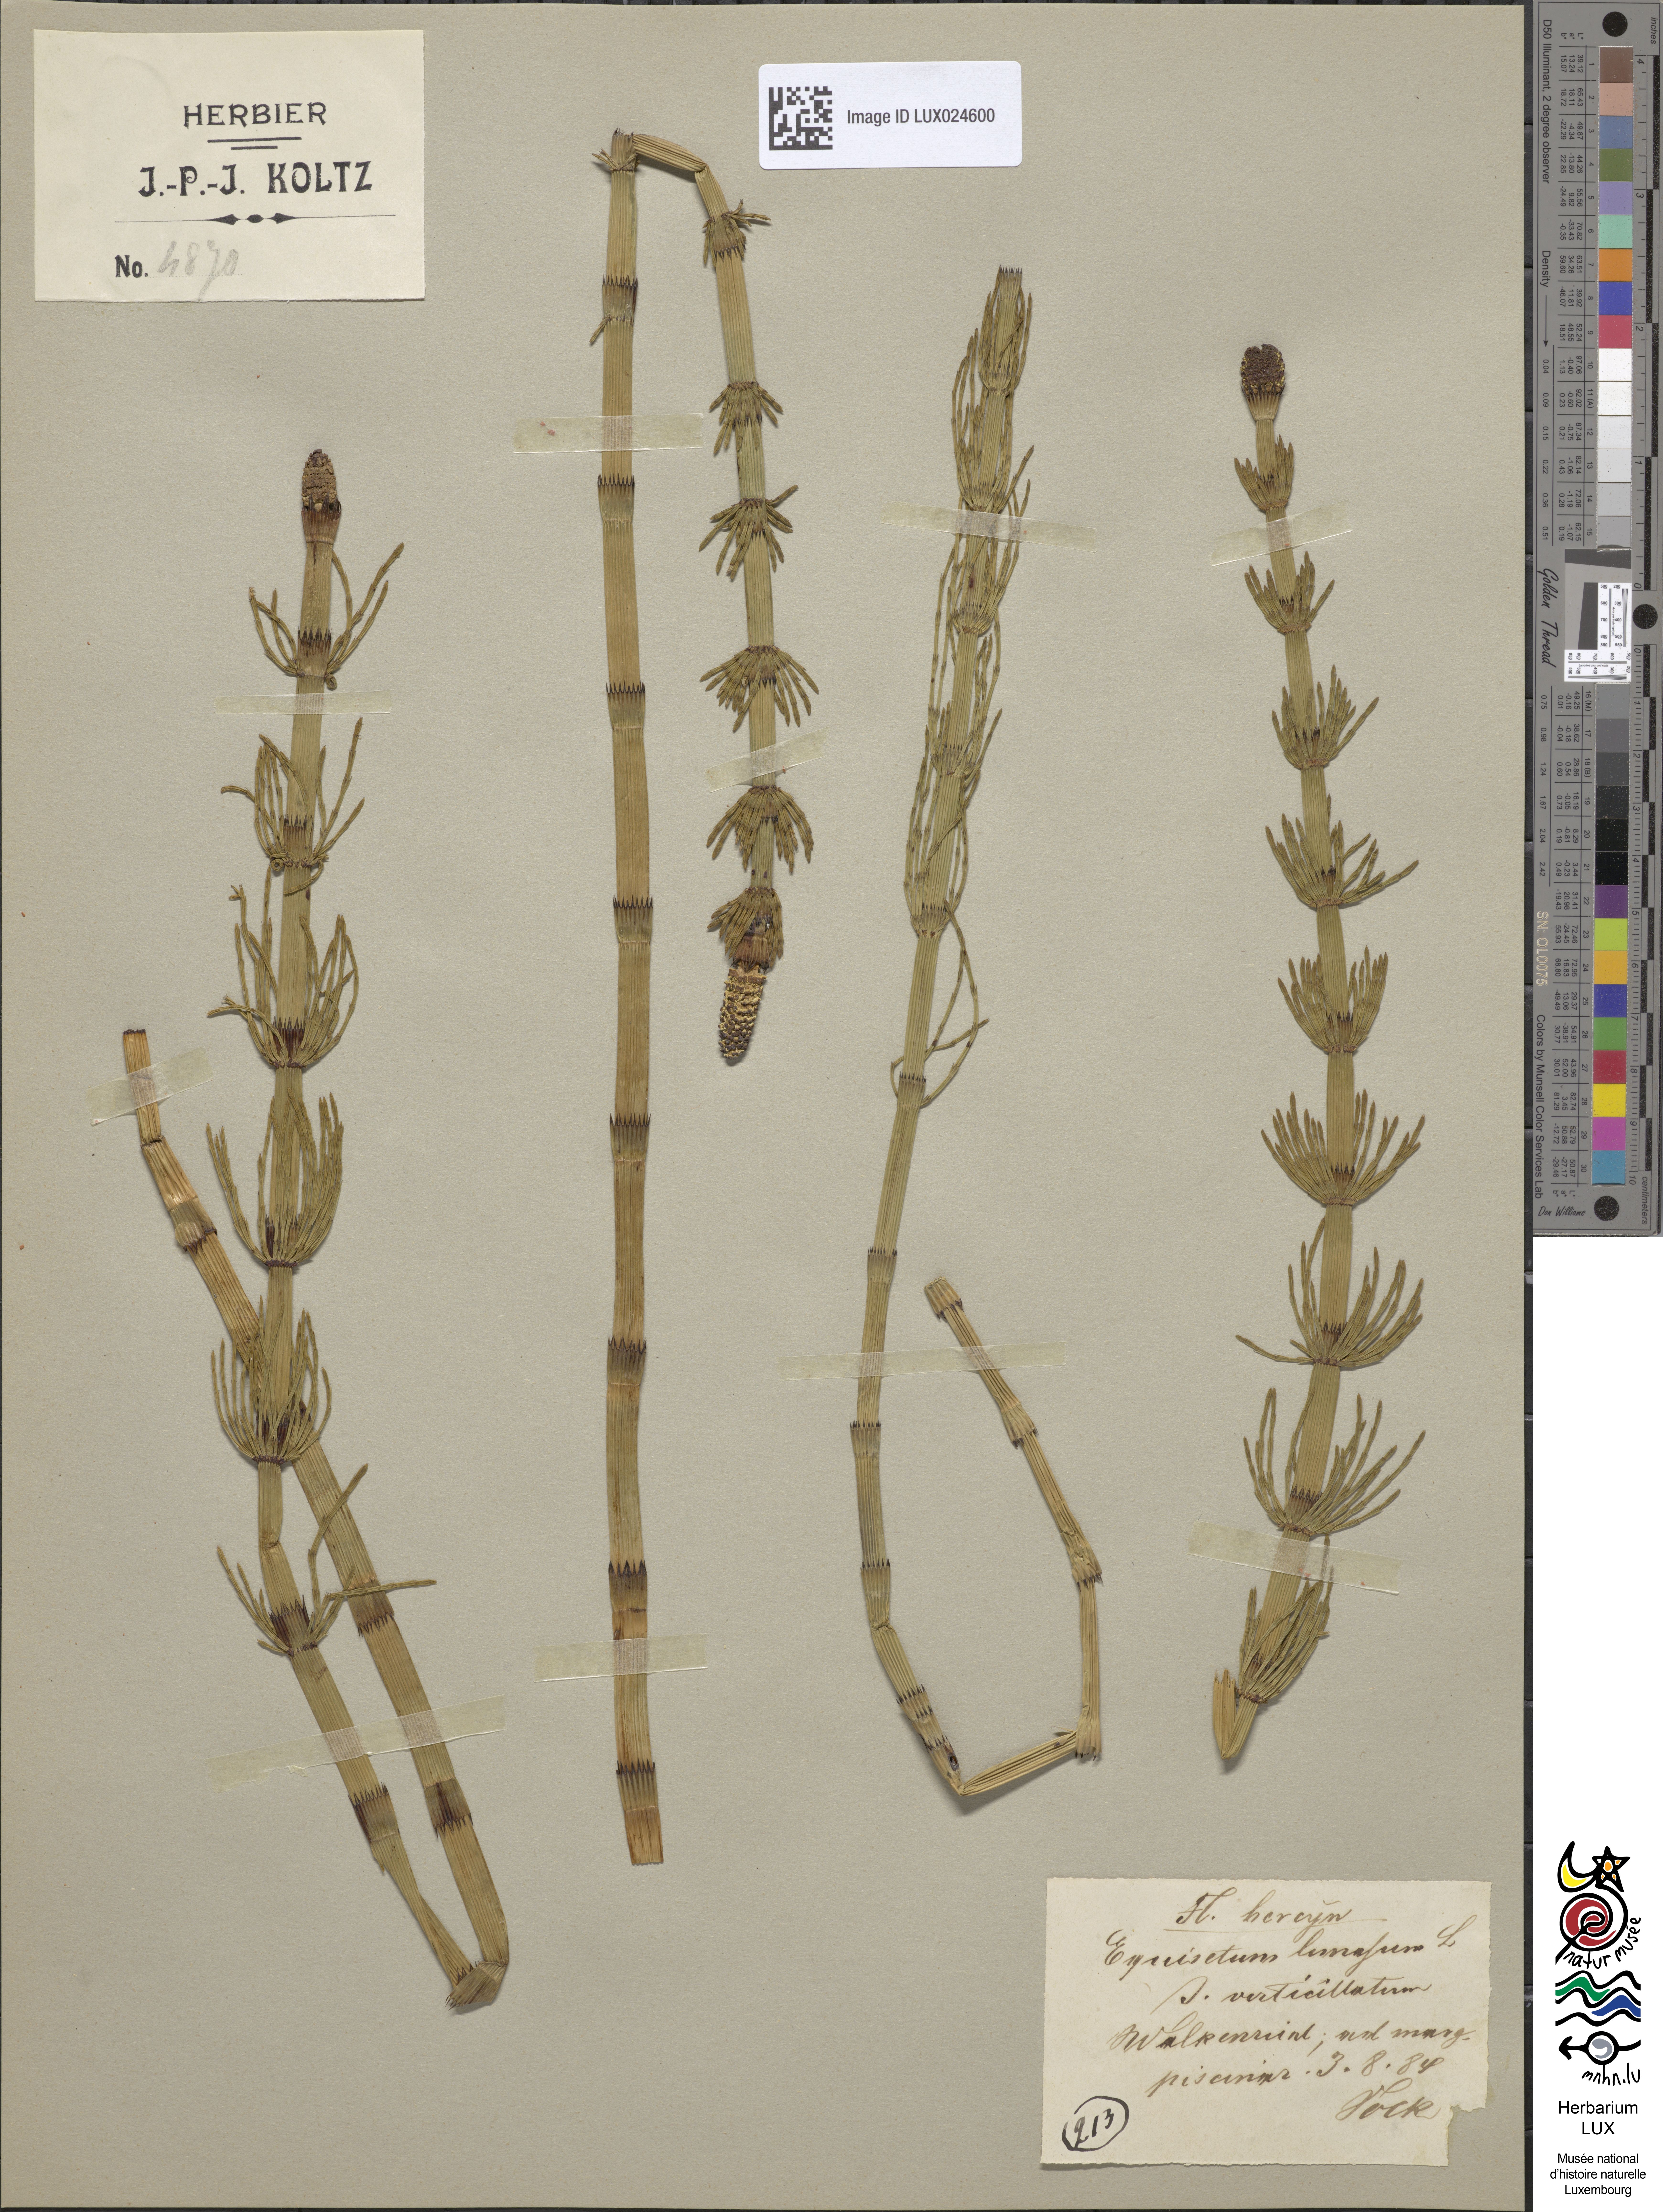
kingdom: Plantae
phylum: Tracheophyta
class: Polypodiopsida
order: Equisetales
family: Equisetaceae
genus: Equisetum
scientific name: Equisetum fluviatile
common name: Water horsetail
